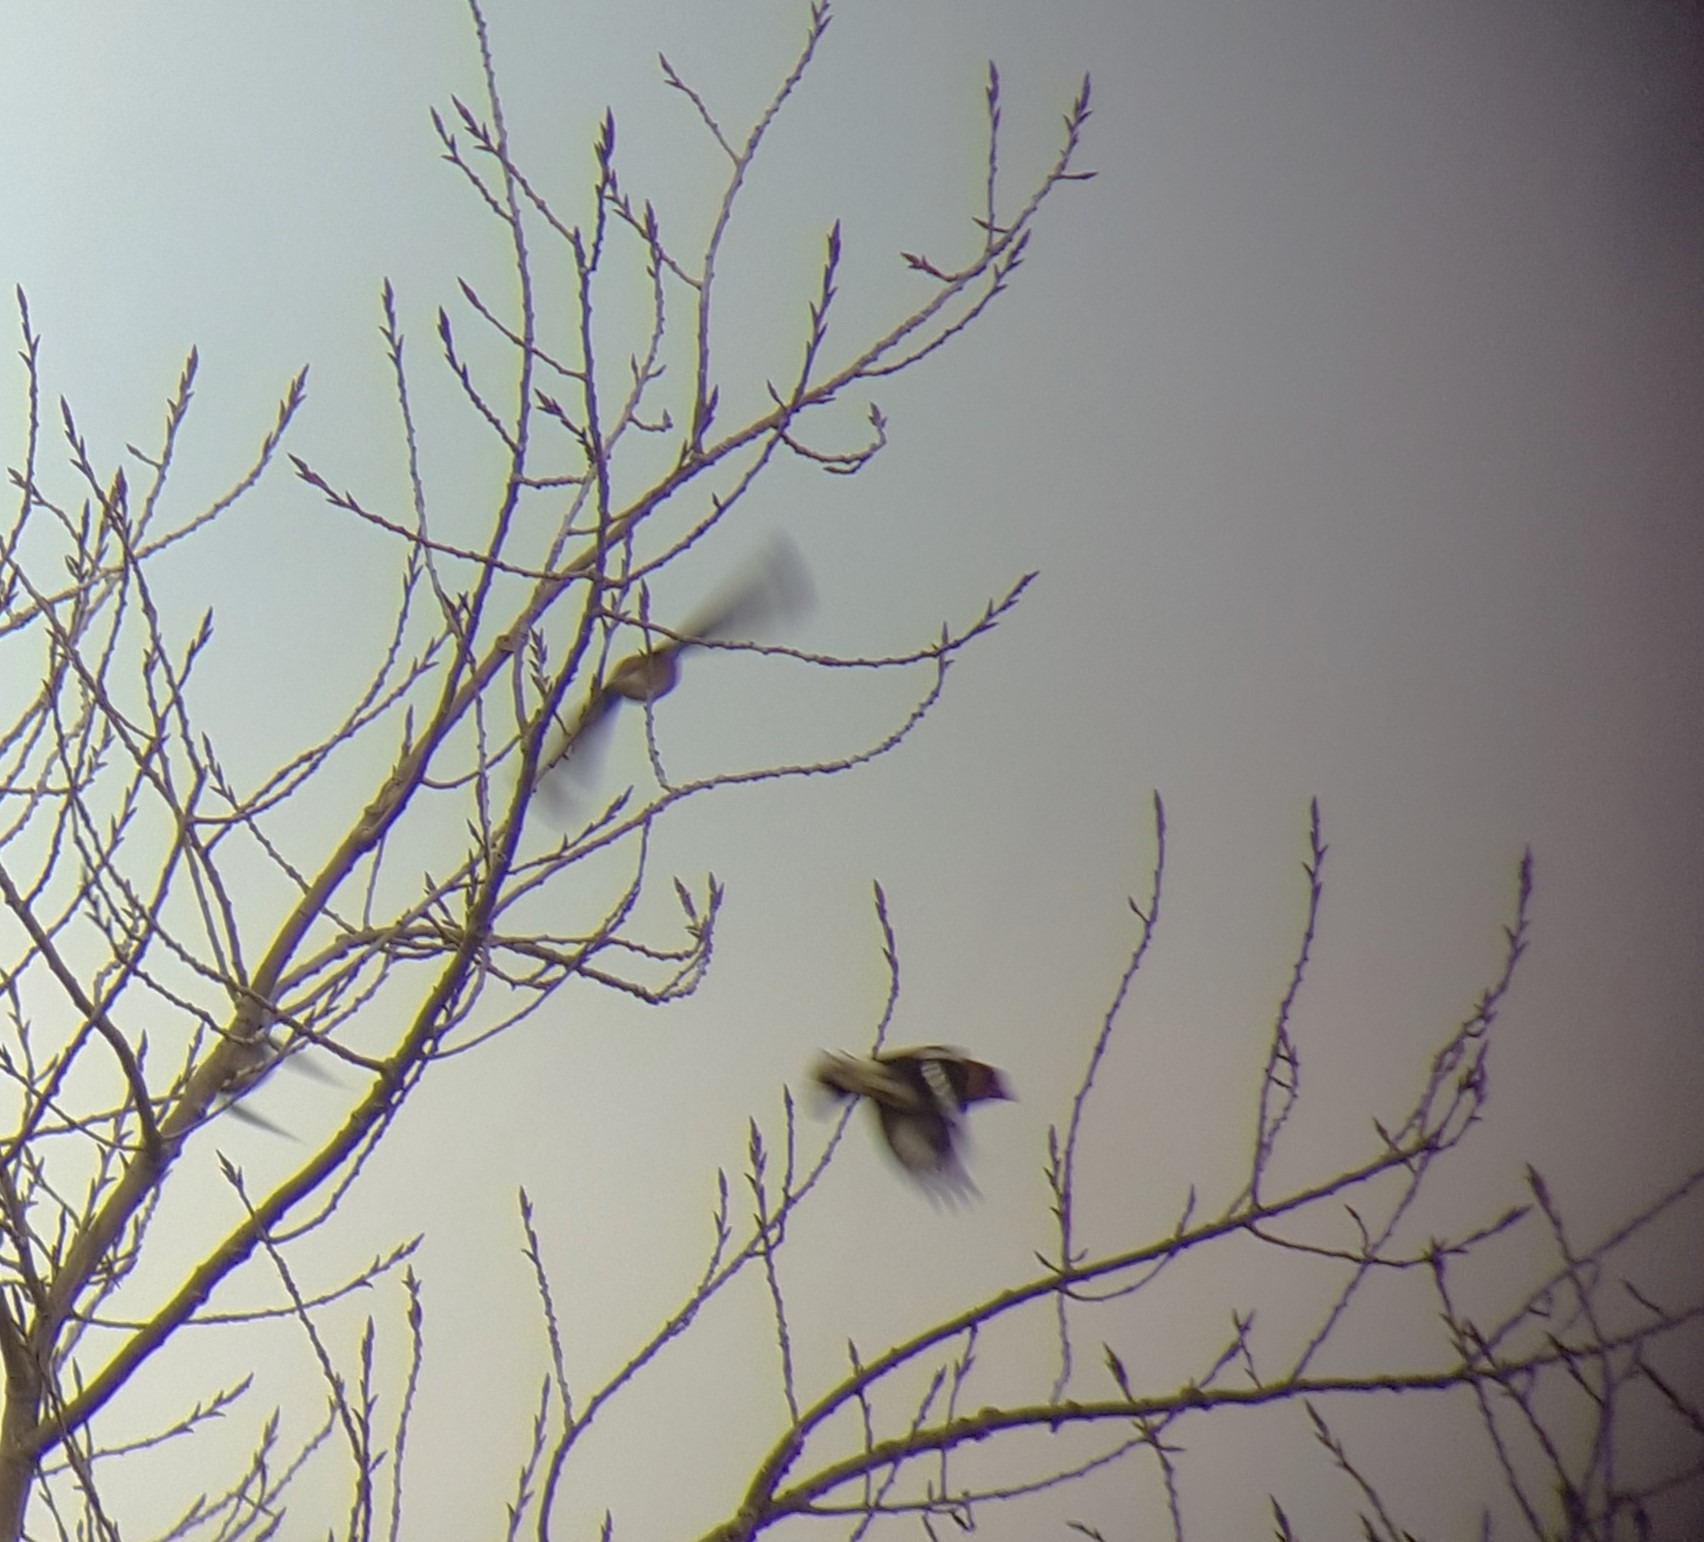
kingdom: Animalia
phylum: Chordata
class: Aves
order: Passeriformes
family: Fringillidae
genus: Coccothraustes
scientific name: Coccothraustes coccothraustes
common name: Kernebider
